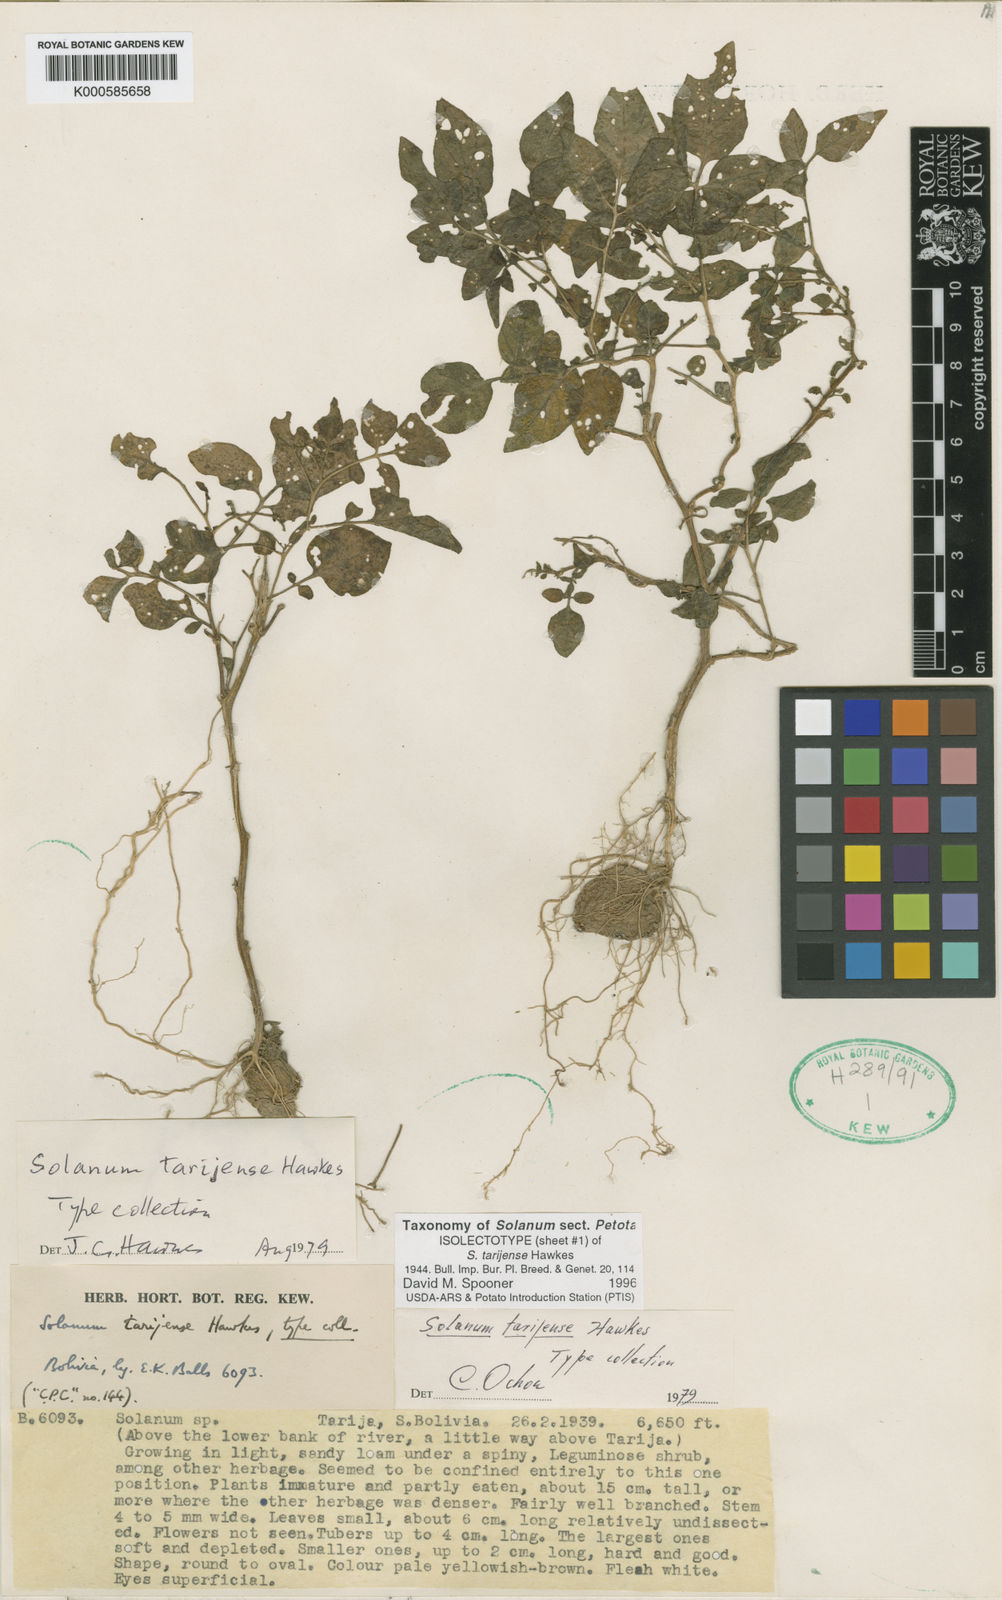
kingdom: Plantae
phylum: Tracheophyta
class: Magnoliopsida
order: Solanales
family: Solanaceae
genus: Solanum
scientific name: Solanum tarijense
